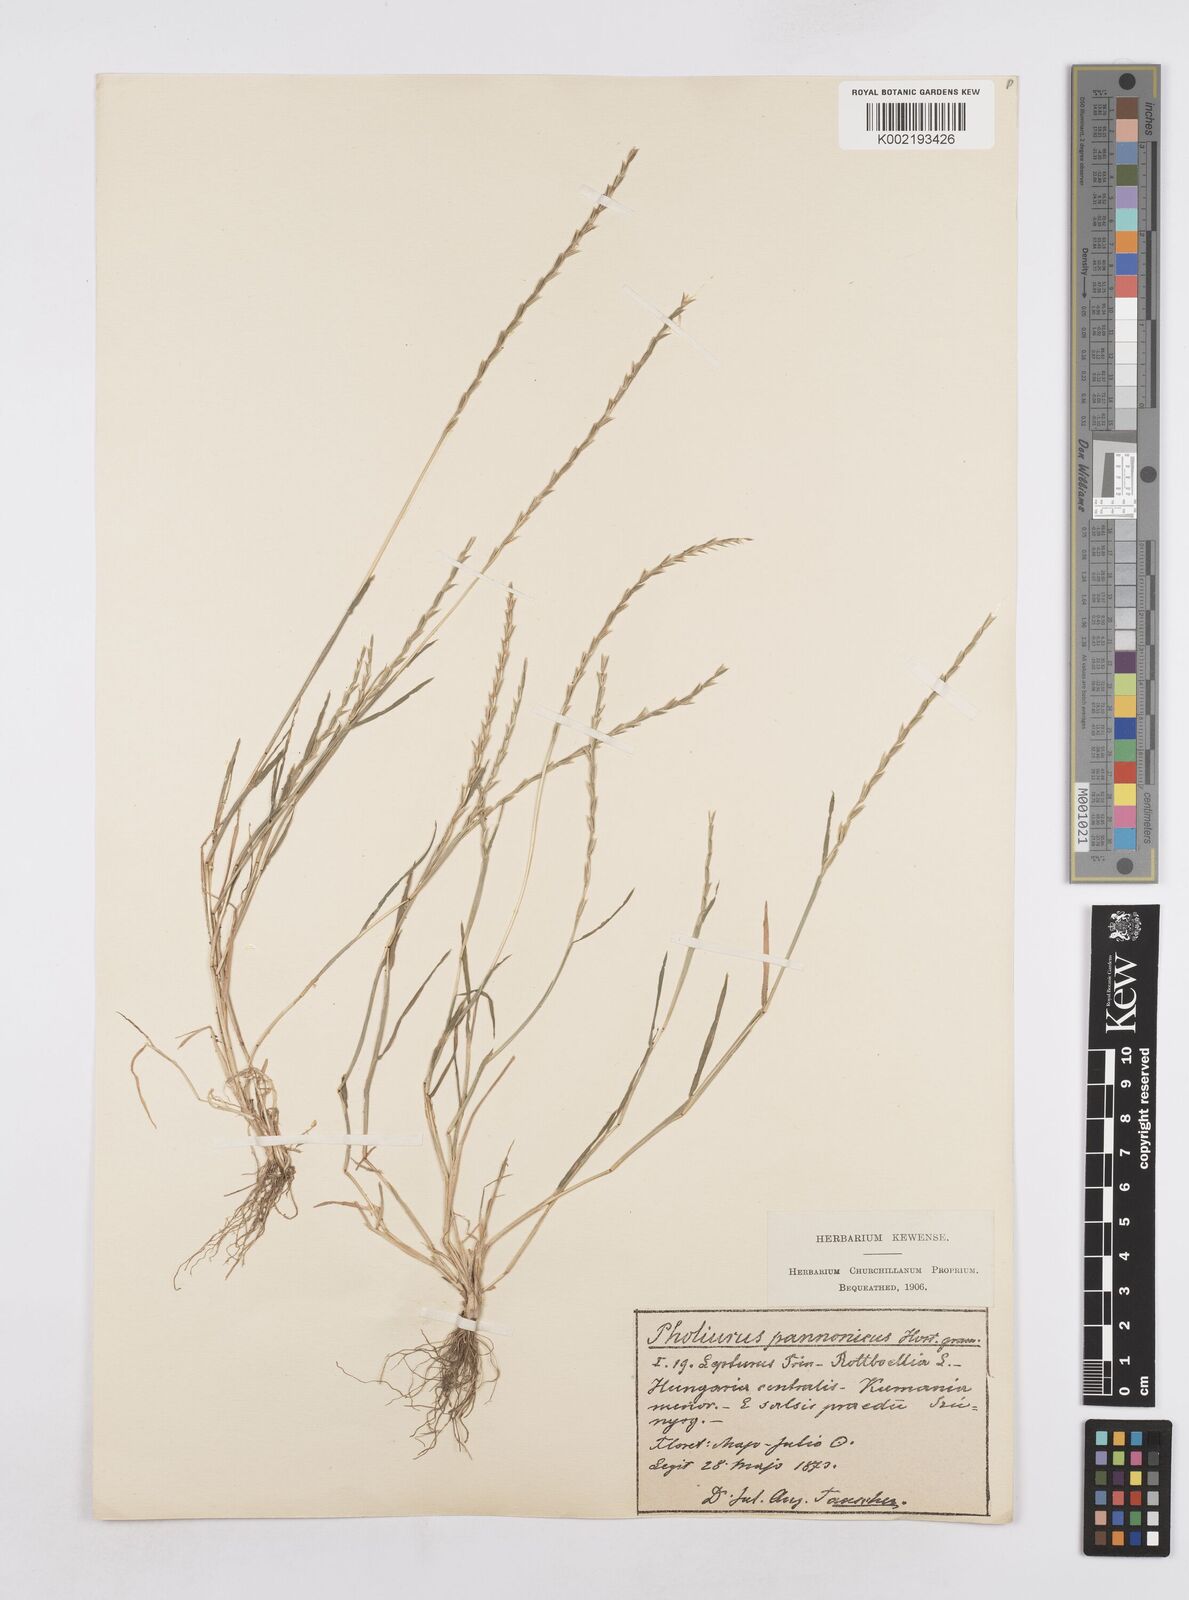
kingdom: Plantae
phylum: Tracheophyta
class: Liliopsida
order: Poales
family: Poaceae
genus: Pholiurus
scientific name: Pholiurus pannonicus
